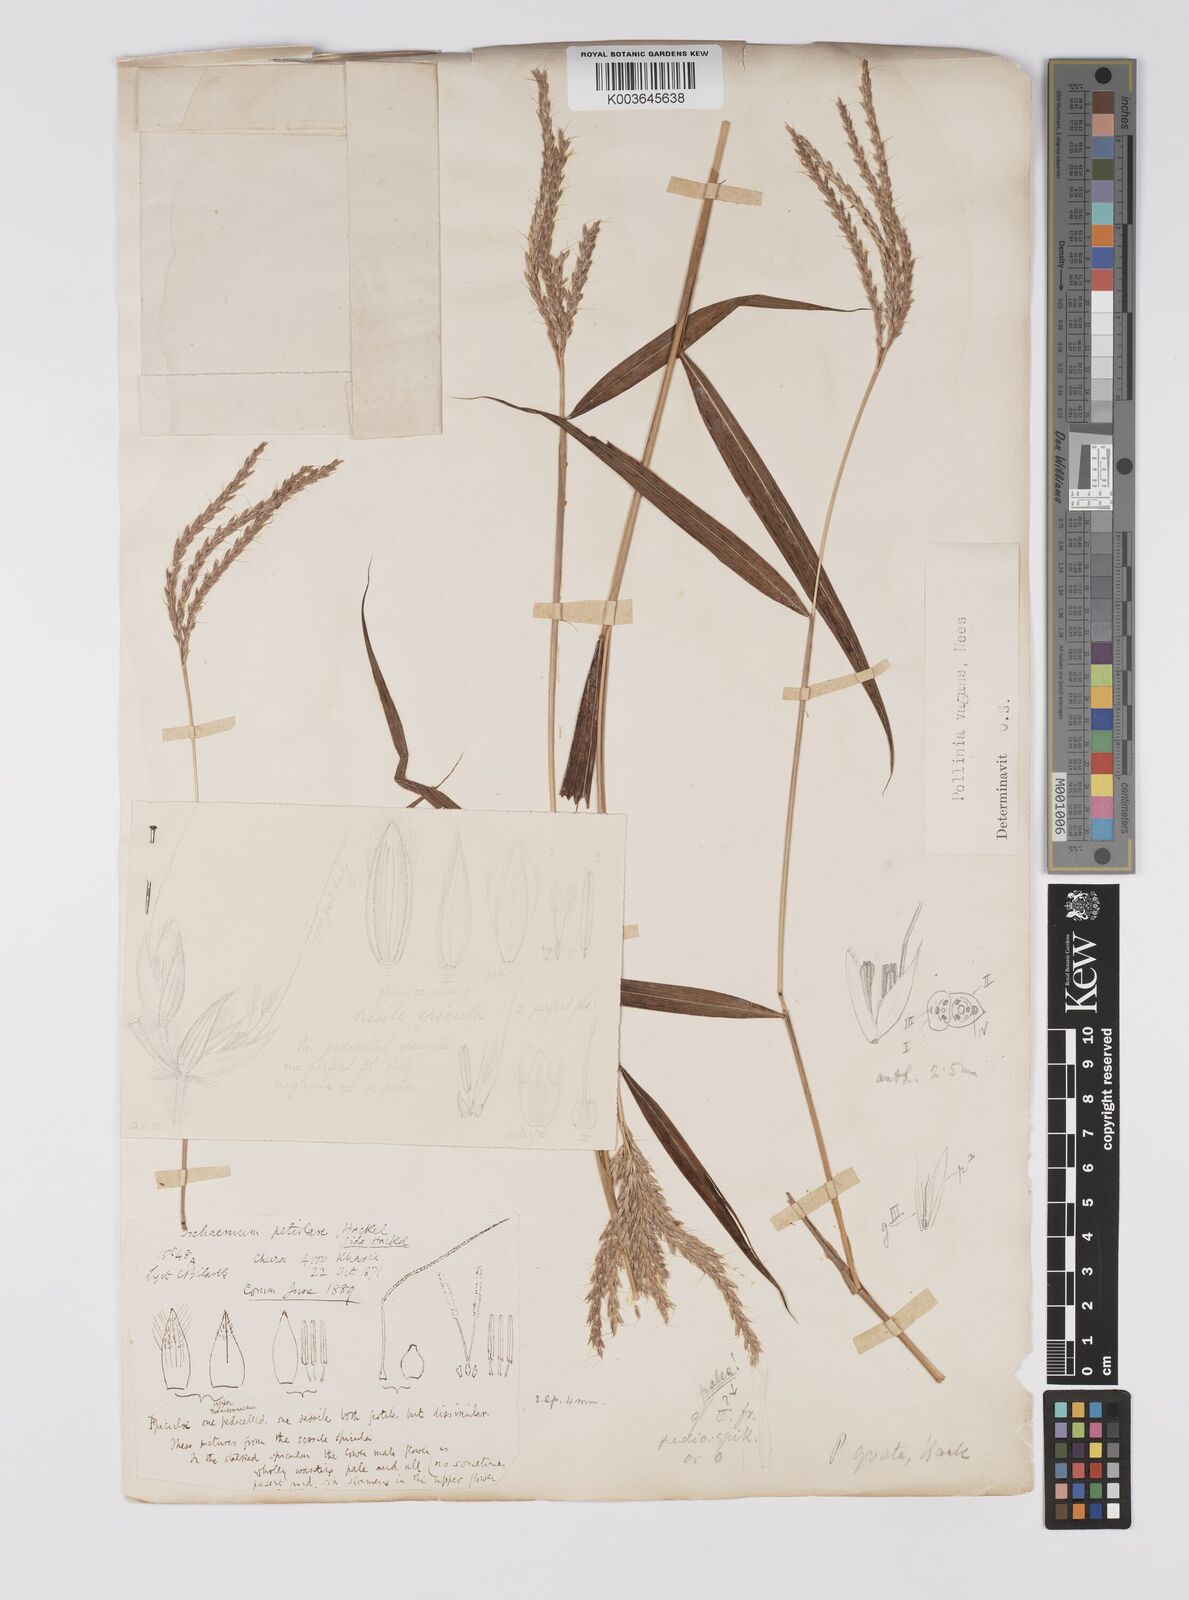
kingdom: Plantae
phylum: Tracheophyta
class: Liliopsida
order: Poales
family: Poaceae
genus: Microstegium
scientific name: Microstegium fasciculatum
